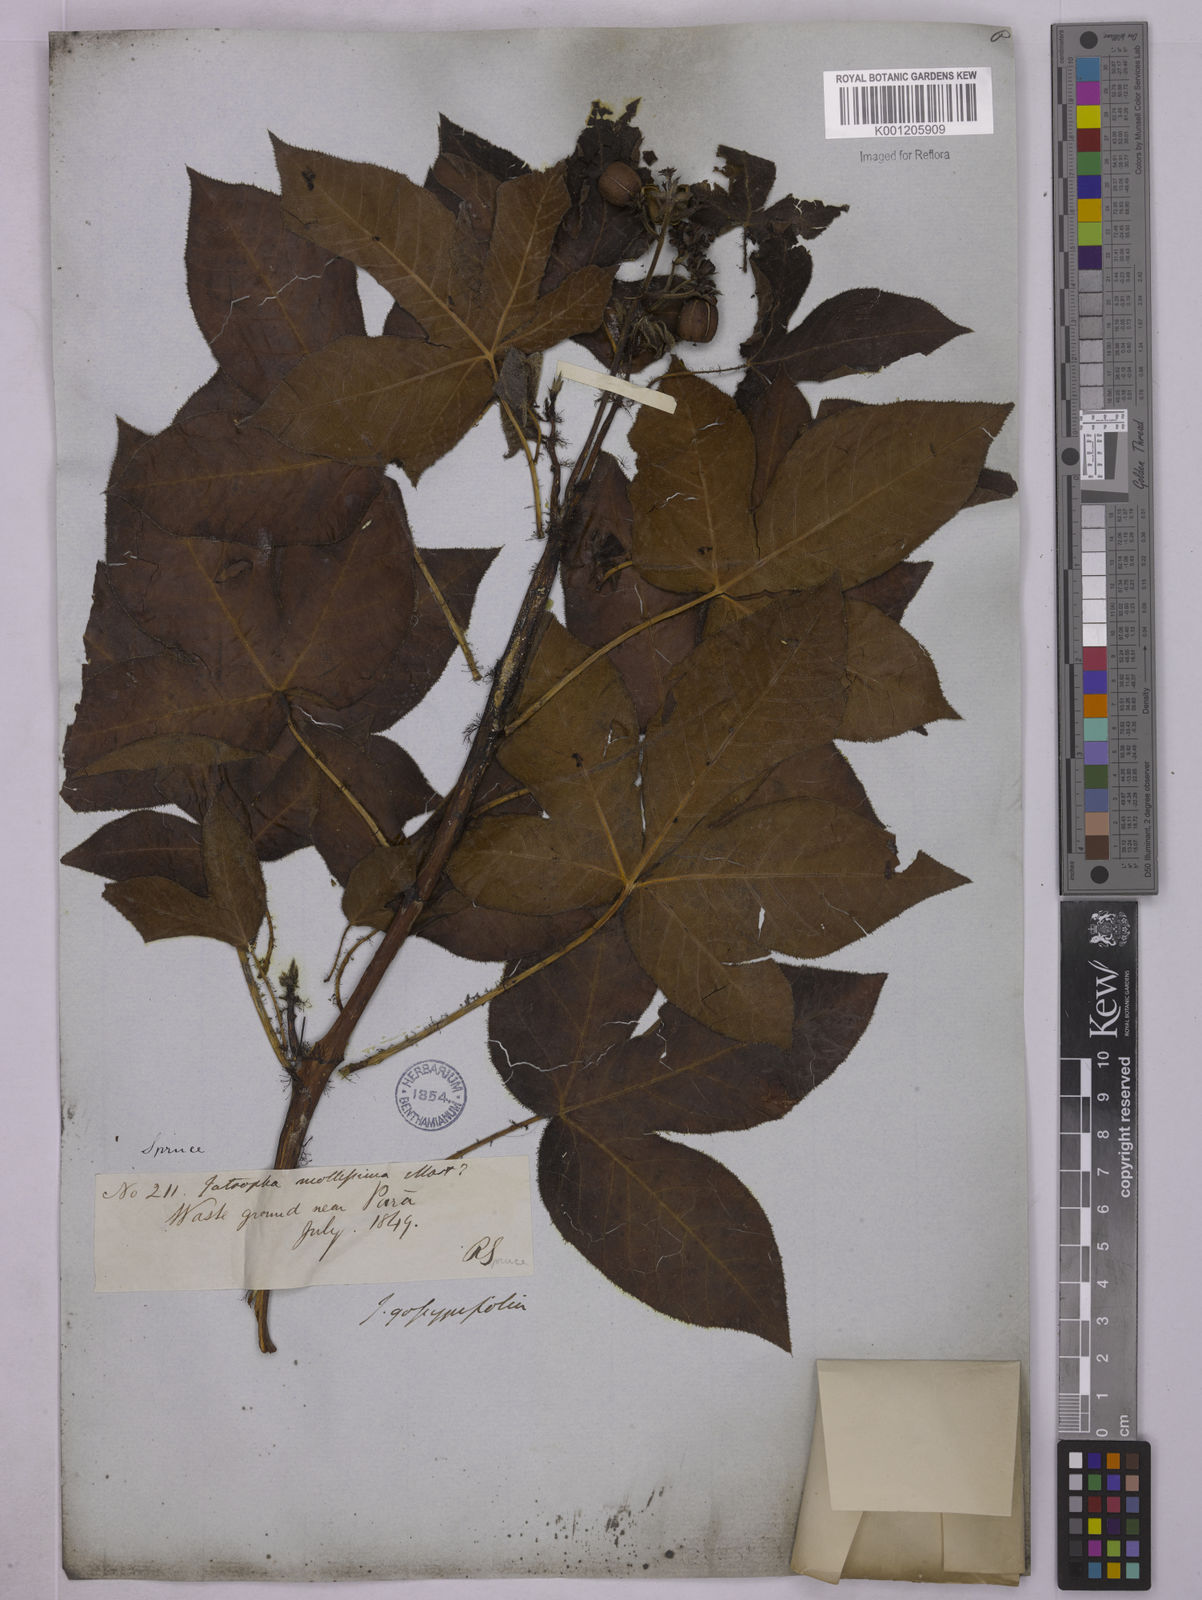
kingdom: Plantae
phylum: Tracheophyta
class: Magnoliopsida
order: Malpighiales
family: Euphorbiaceae
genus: Jatropha
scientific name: Jatropha gossypiifolia
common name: Bellyache bush
